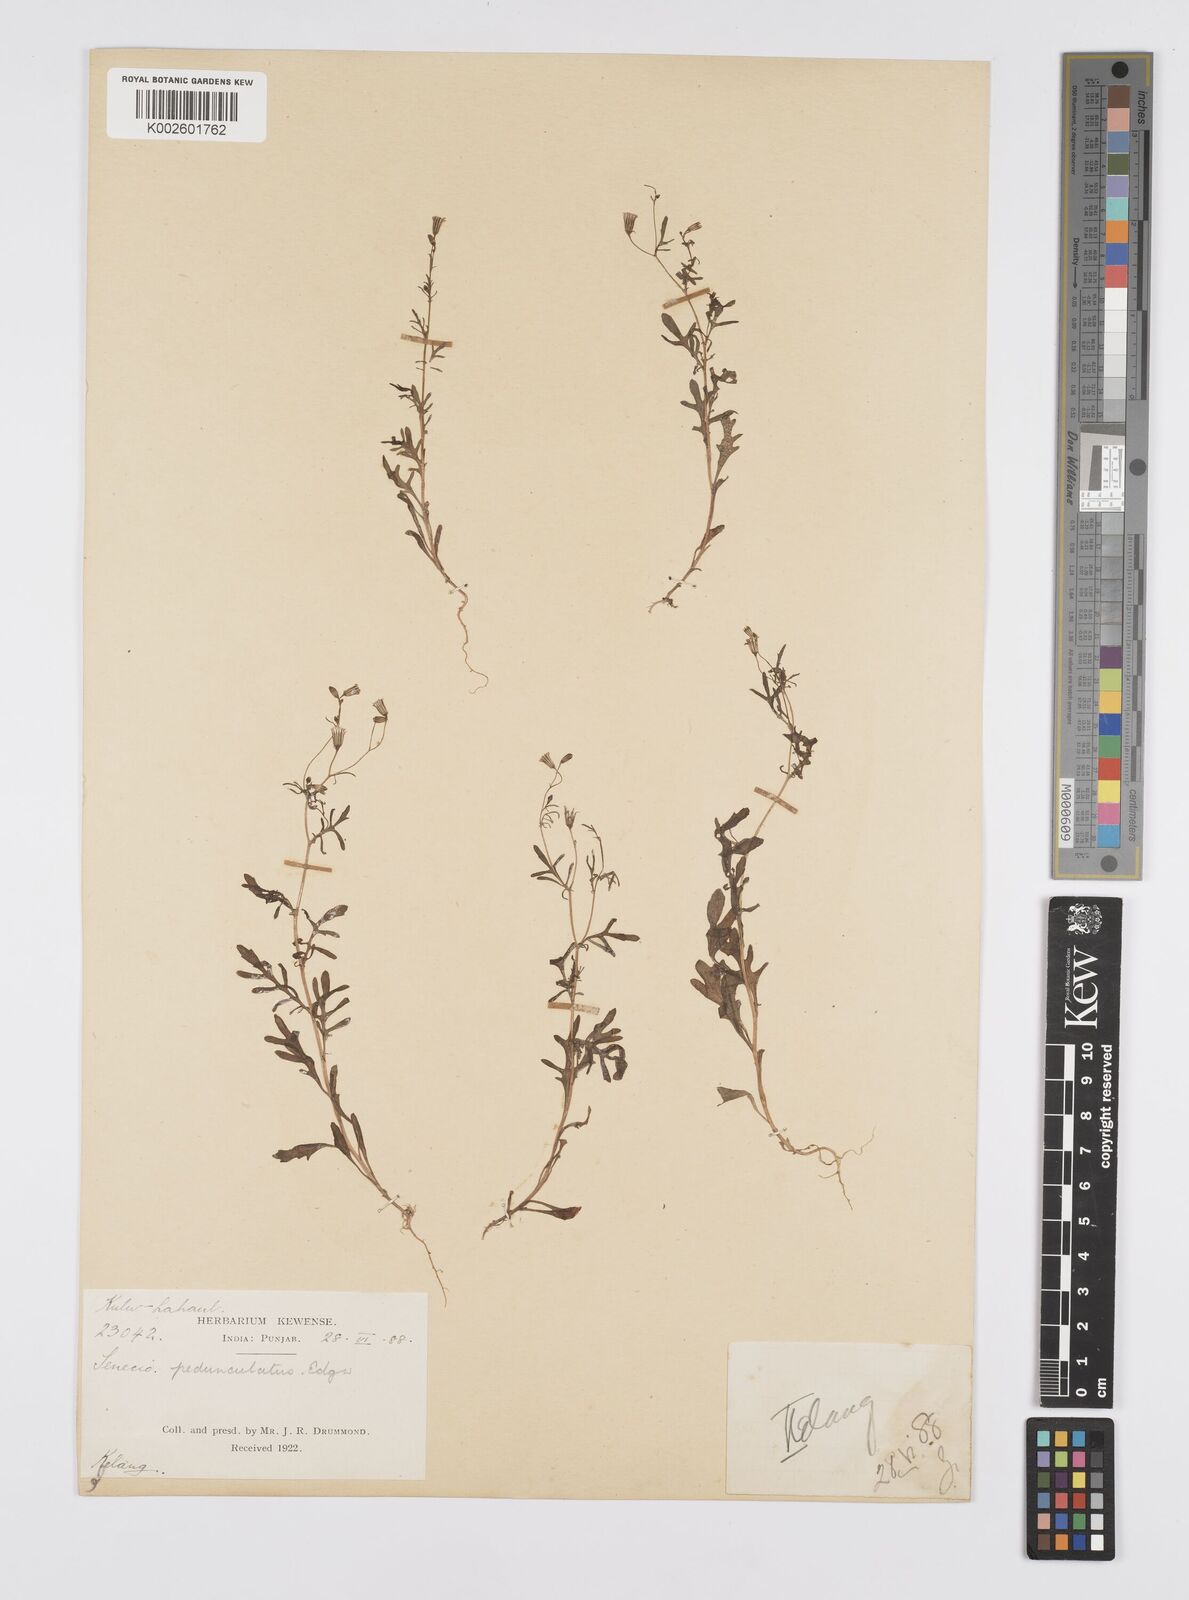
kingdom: Plantae
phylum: Tracheophyta
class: Magnoliopsida
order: Asterales
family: Asteraceae
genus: Senecio
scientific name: Senecio krascheninnikovii
